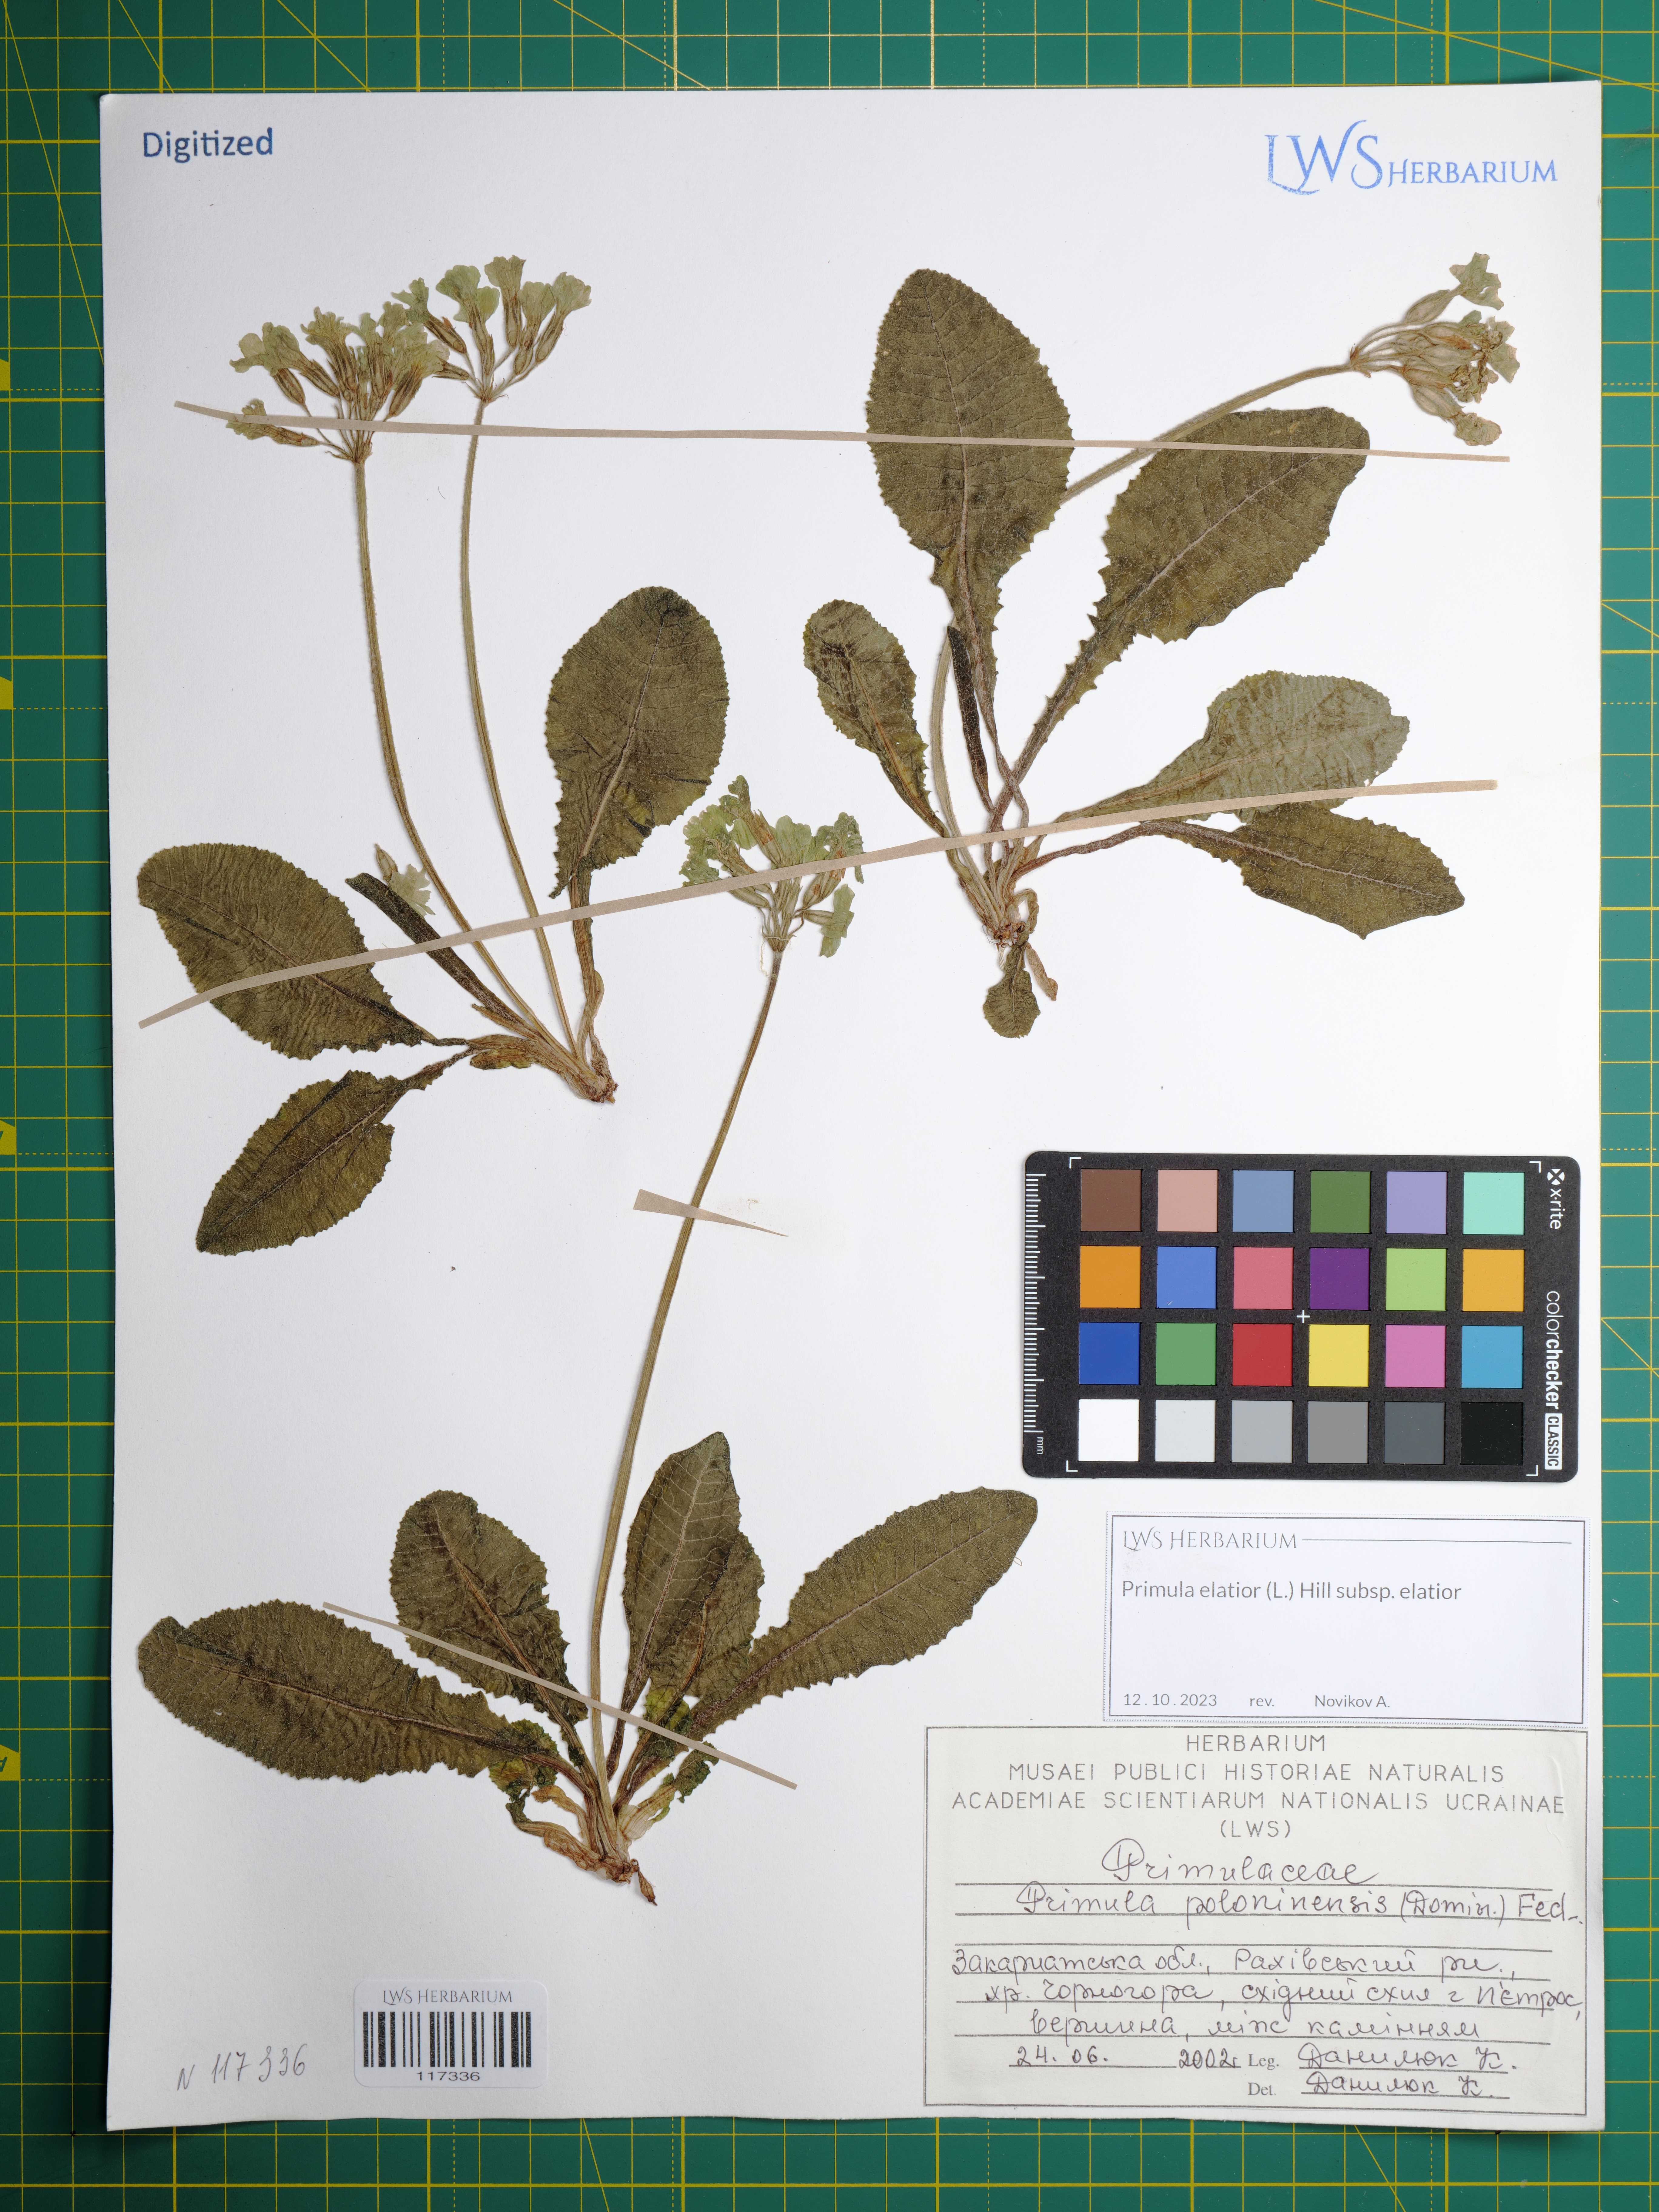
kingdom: Plantae
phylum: Tracheophyta
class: Magnoliopsida
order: Ericales
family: Primulaceae
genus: Primula
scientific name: Primula elatior
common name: Oxlip
